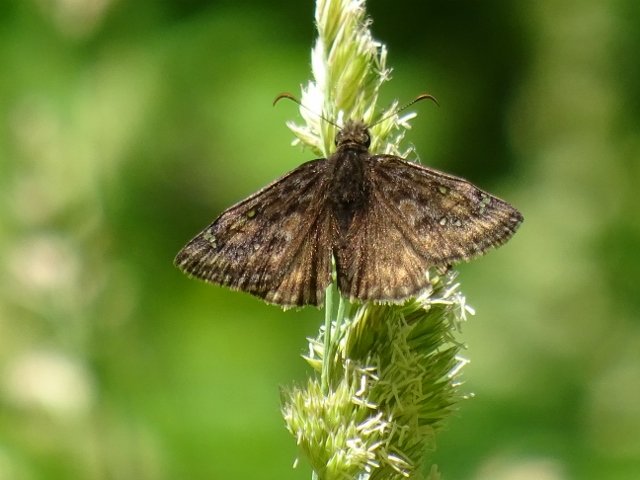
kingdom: Animalia
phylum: Arthropoda
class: Insecta
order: Lepidoptera
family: Hesperiidae
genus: Gesta
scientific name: Gesta
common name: Juvenal's Duskywing
